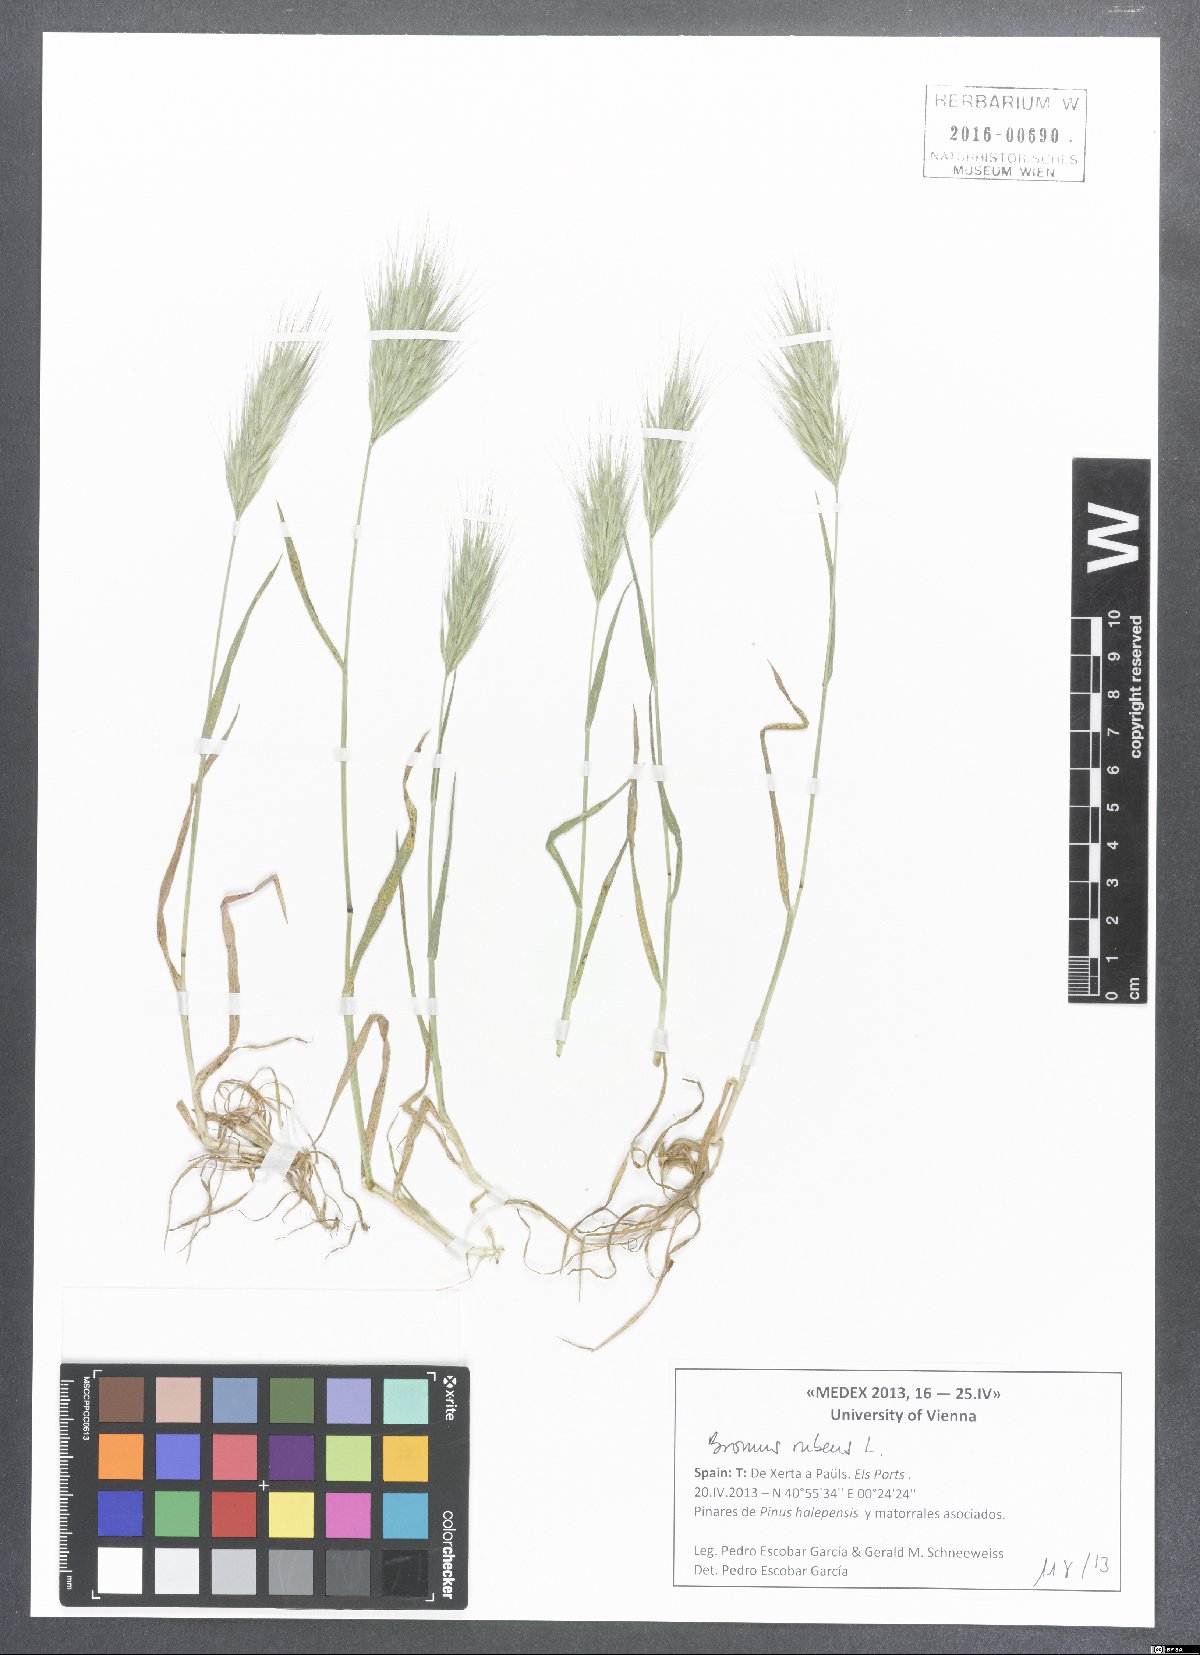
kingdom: Plantae
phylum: Tracheophyta
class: Liliopsida
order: Poales
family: Poaceae
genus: Bromus
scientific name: Bromus rubens
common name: Red brome
